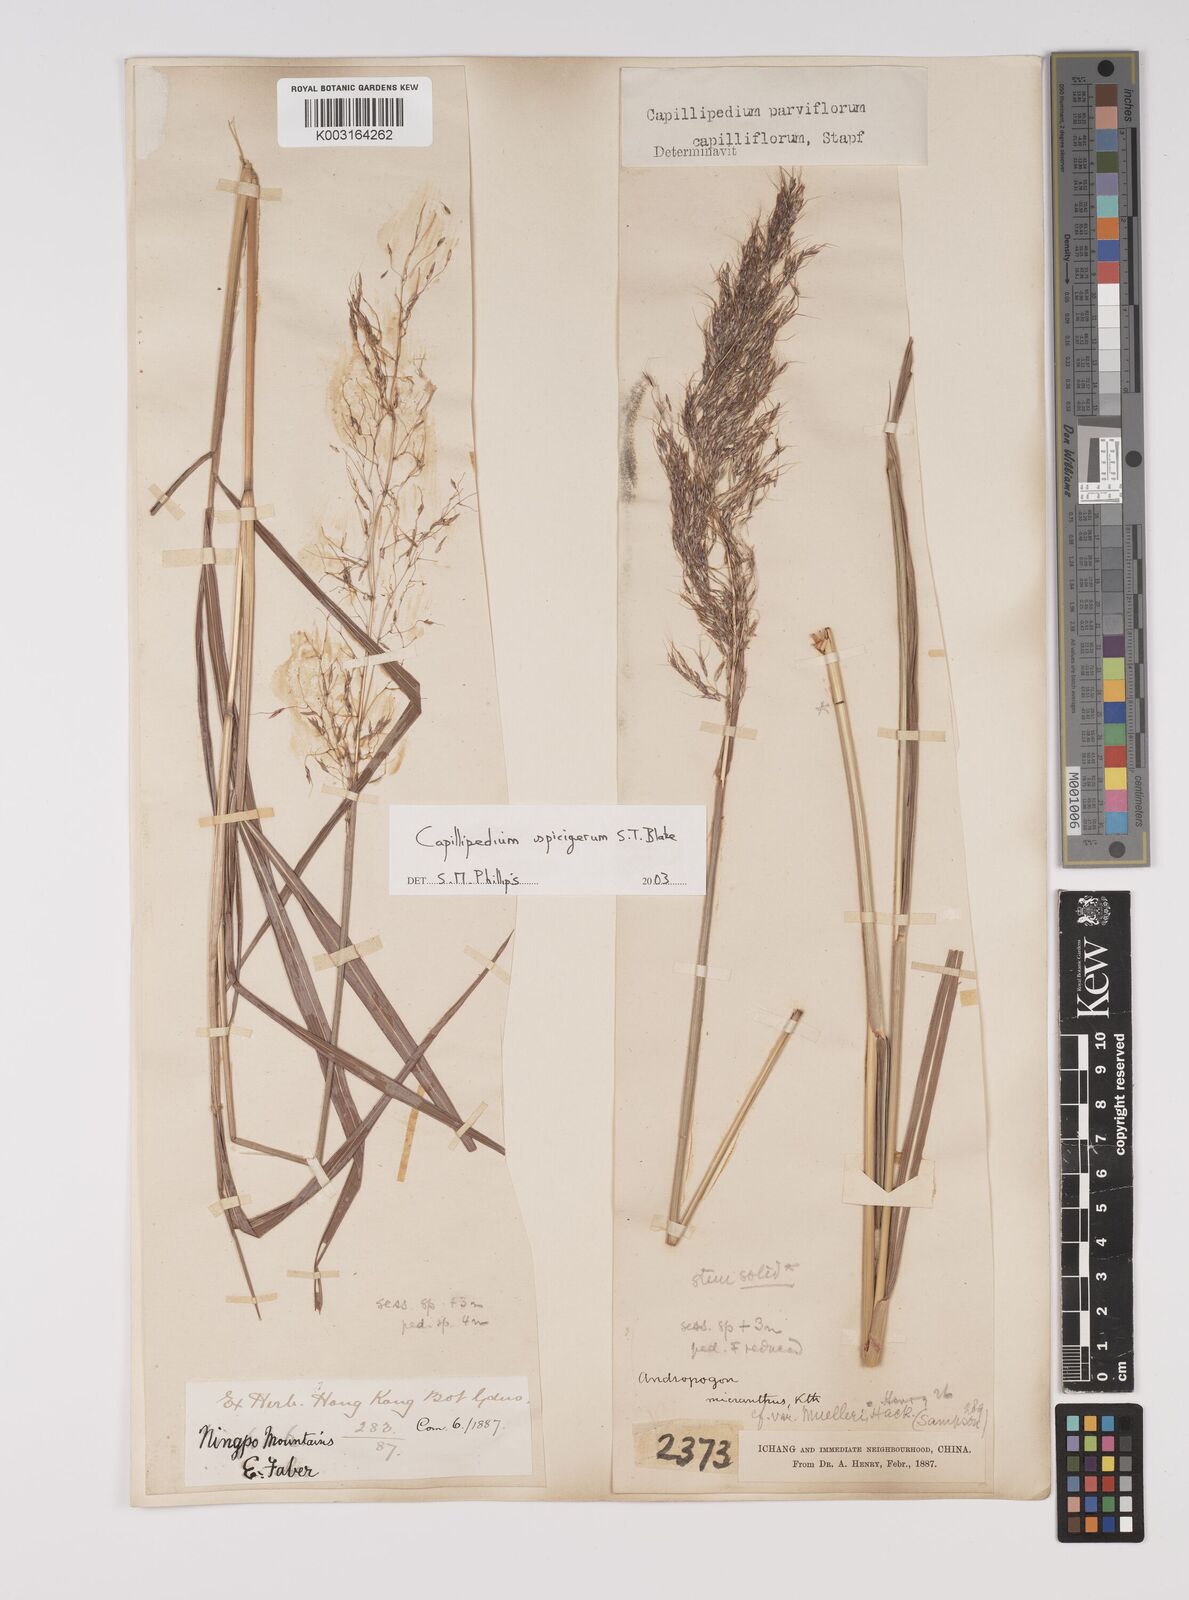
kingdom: Plantae
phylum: Tracheophyta
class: Liliopsida
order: Poales
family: Poaceae
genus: Capillipedium
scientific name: Capillipedium spicigerum
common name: Scented-top grass
